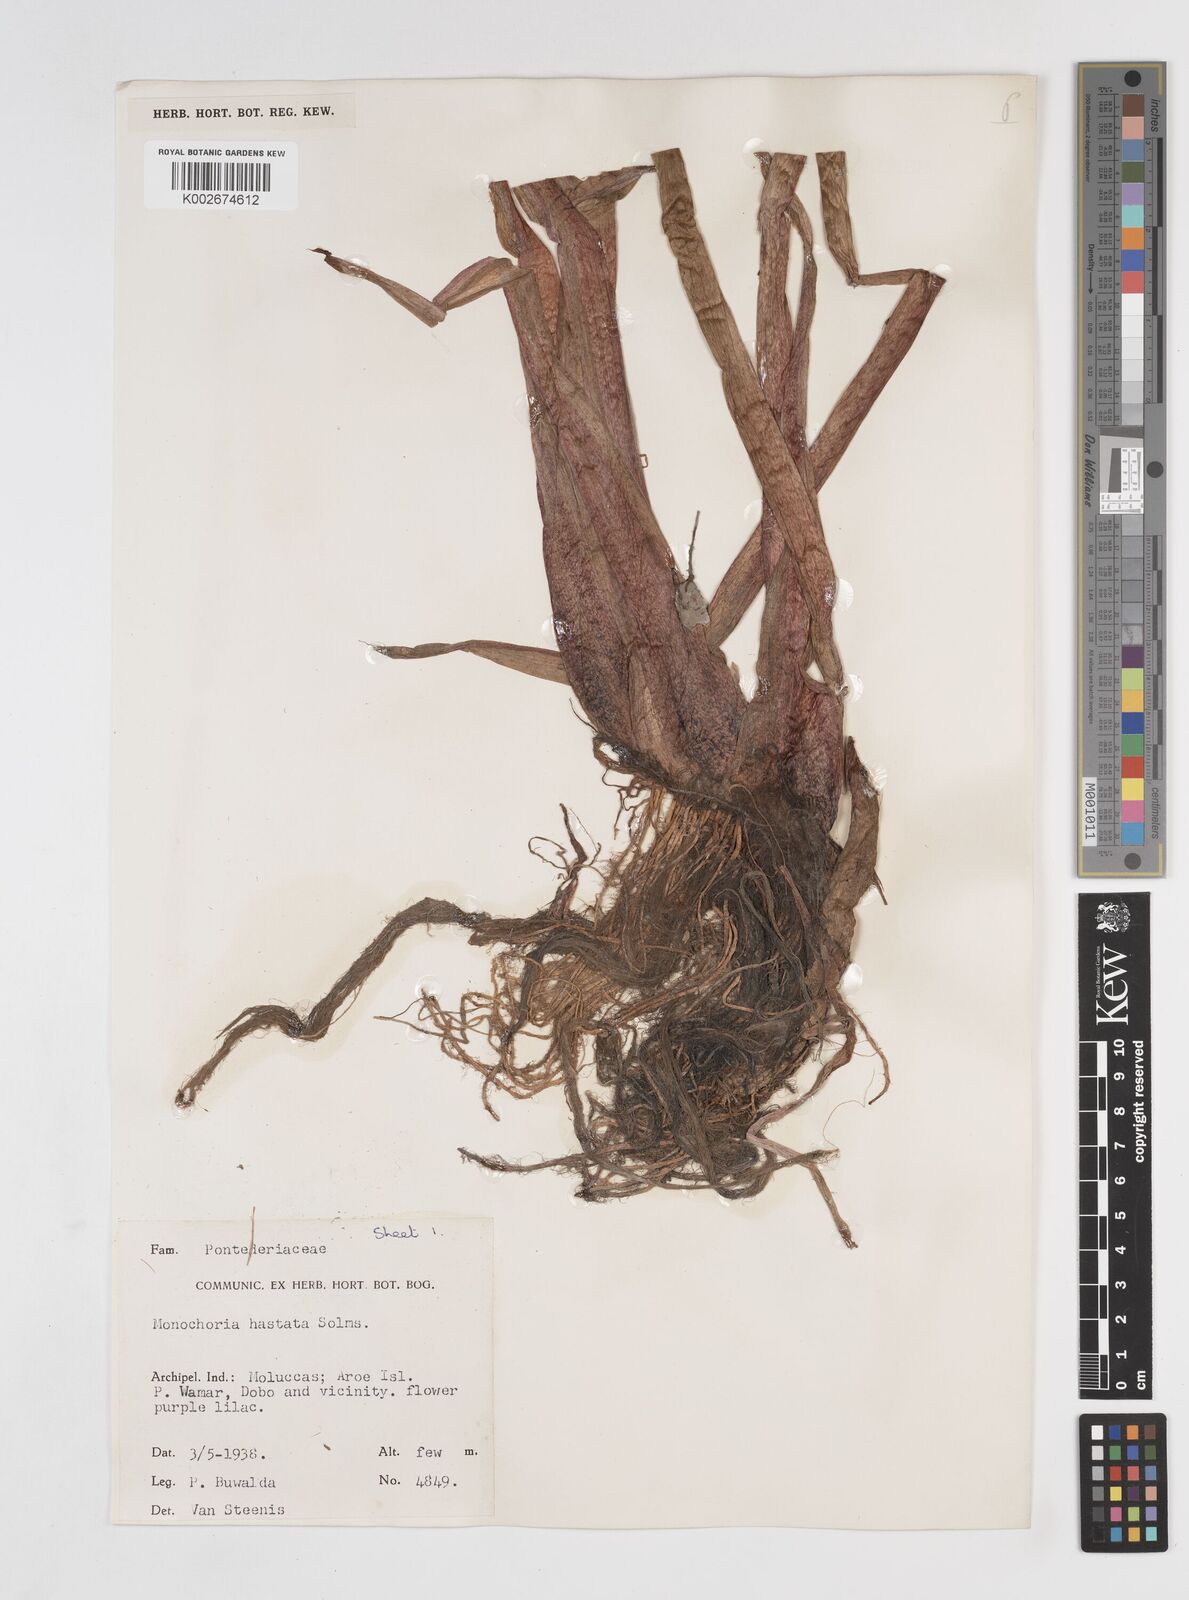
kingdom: Plantae
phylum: Tracheophyta
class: Liliopsida
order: Commelinales
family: Pontederiaceae
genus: Pontederia
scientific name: Pontederia hastata
